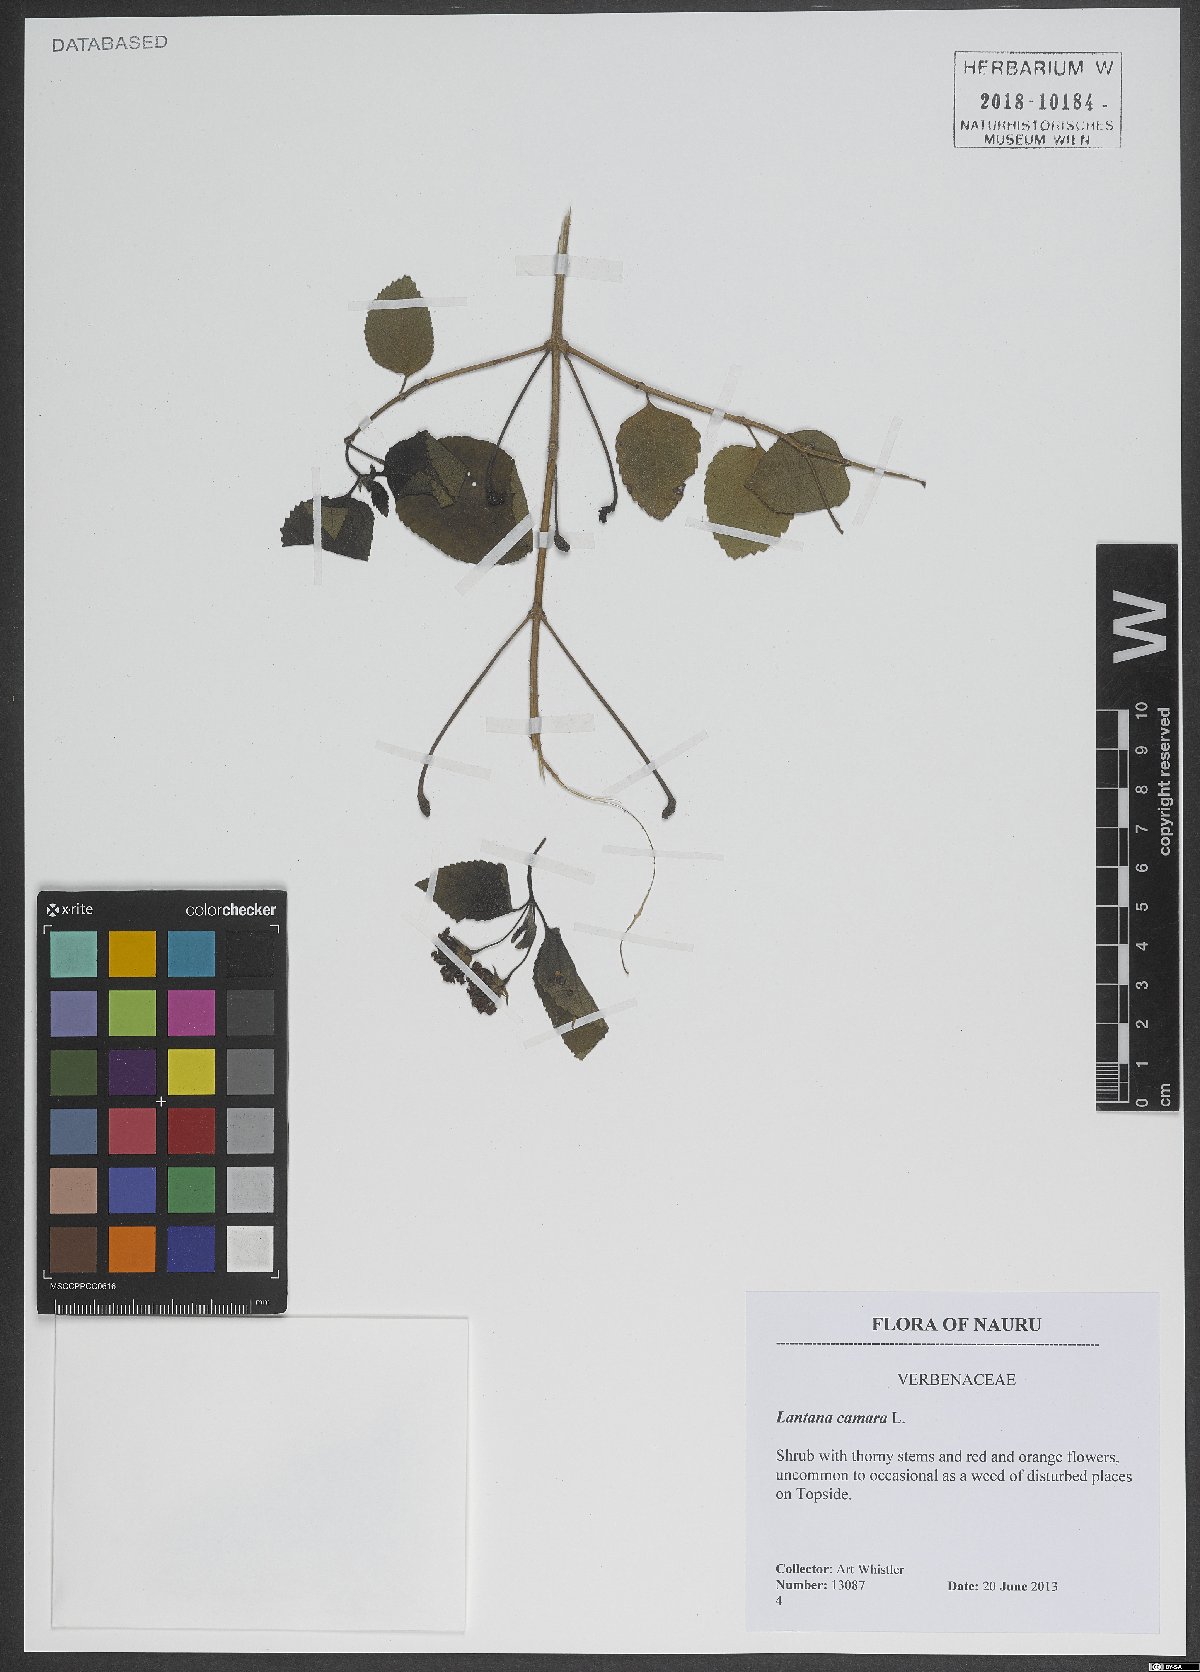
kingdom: Plantae
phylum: Tracheophyta
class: Magnoliopsida
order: Lamiales
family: Verbenaceae
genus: Lantana
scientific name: Lantana camara
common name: Lantana
